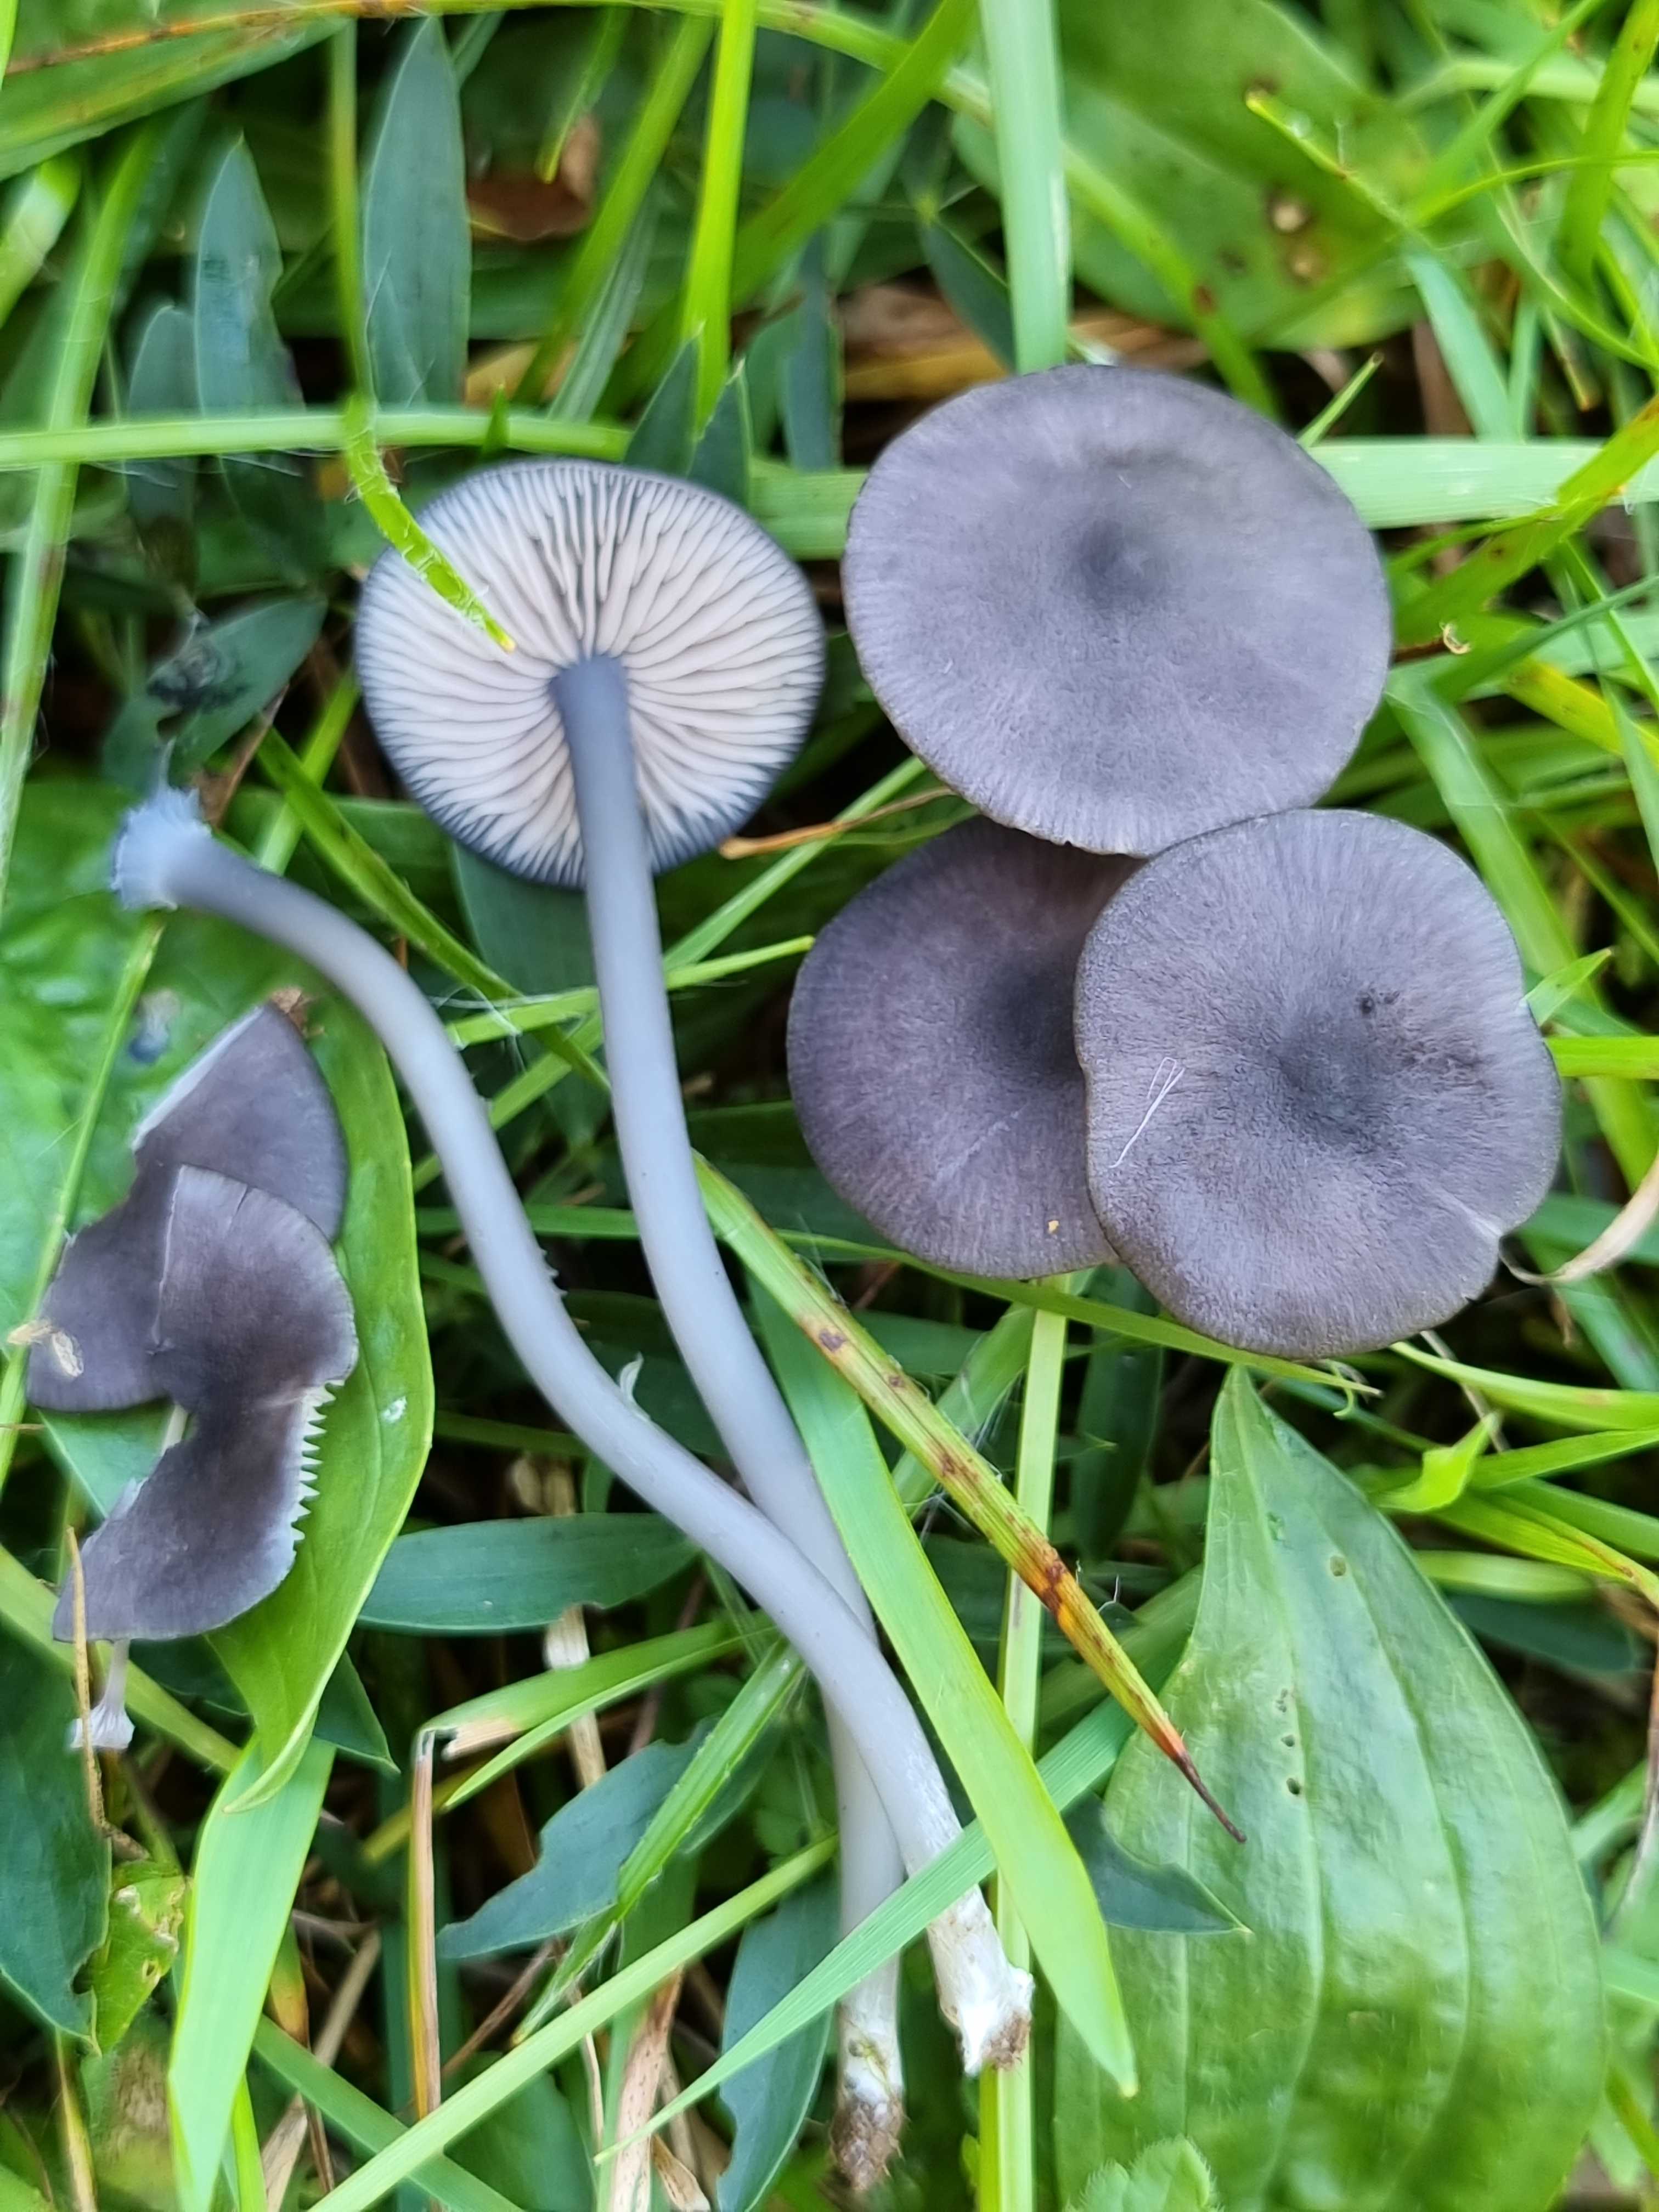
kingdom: Fungi
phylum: Basidiomycota
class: Agaricomycetes
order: Agaricales
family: Entolomataceae
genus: Entoloma
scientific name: Entoloma
